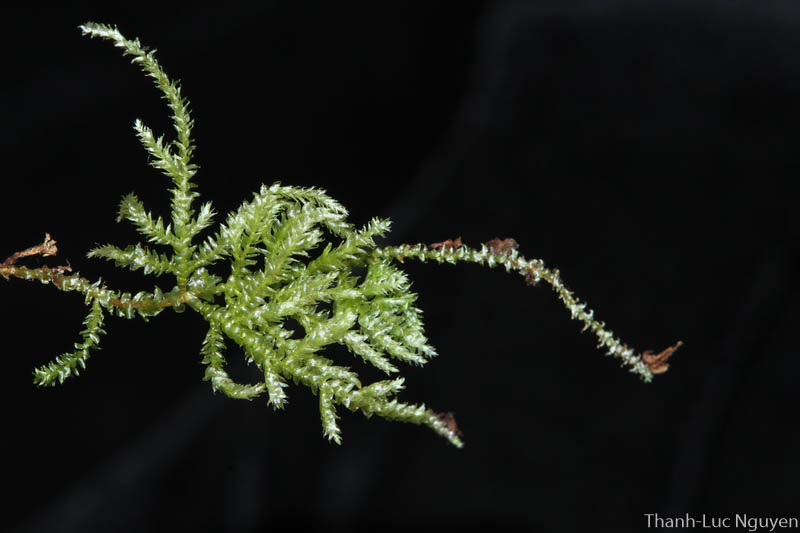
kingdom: Plantae
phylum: Bryophyta
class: Bryopsida
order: Hypnales
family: Pylaisiadelphaceae
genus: Trismegistia
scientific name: Trismegistia
